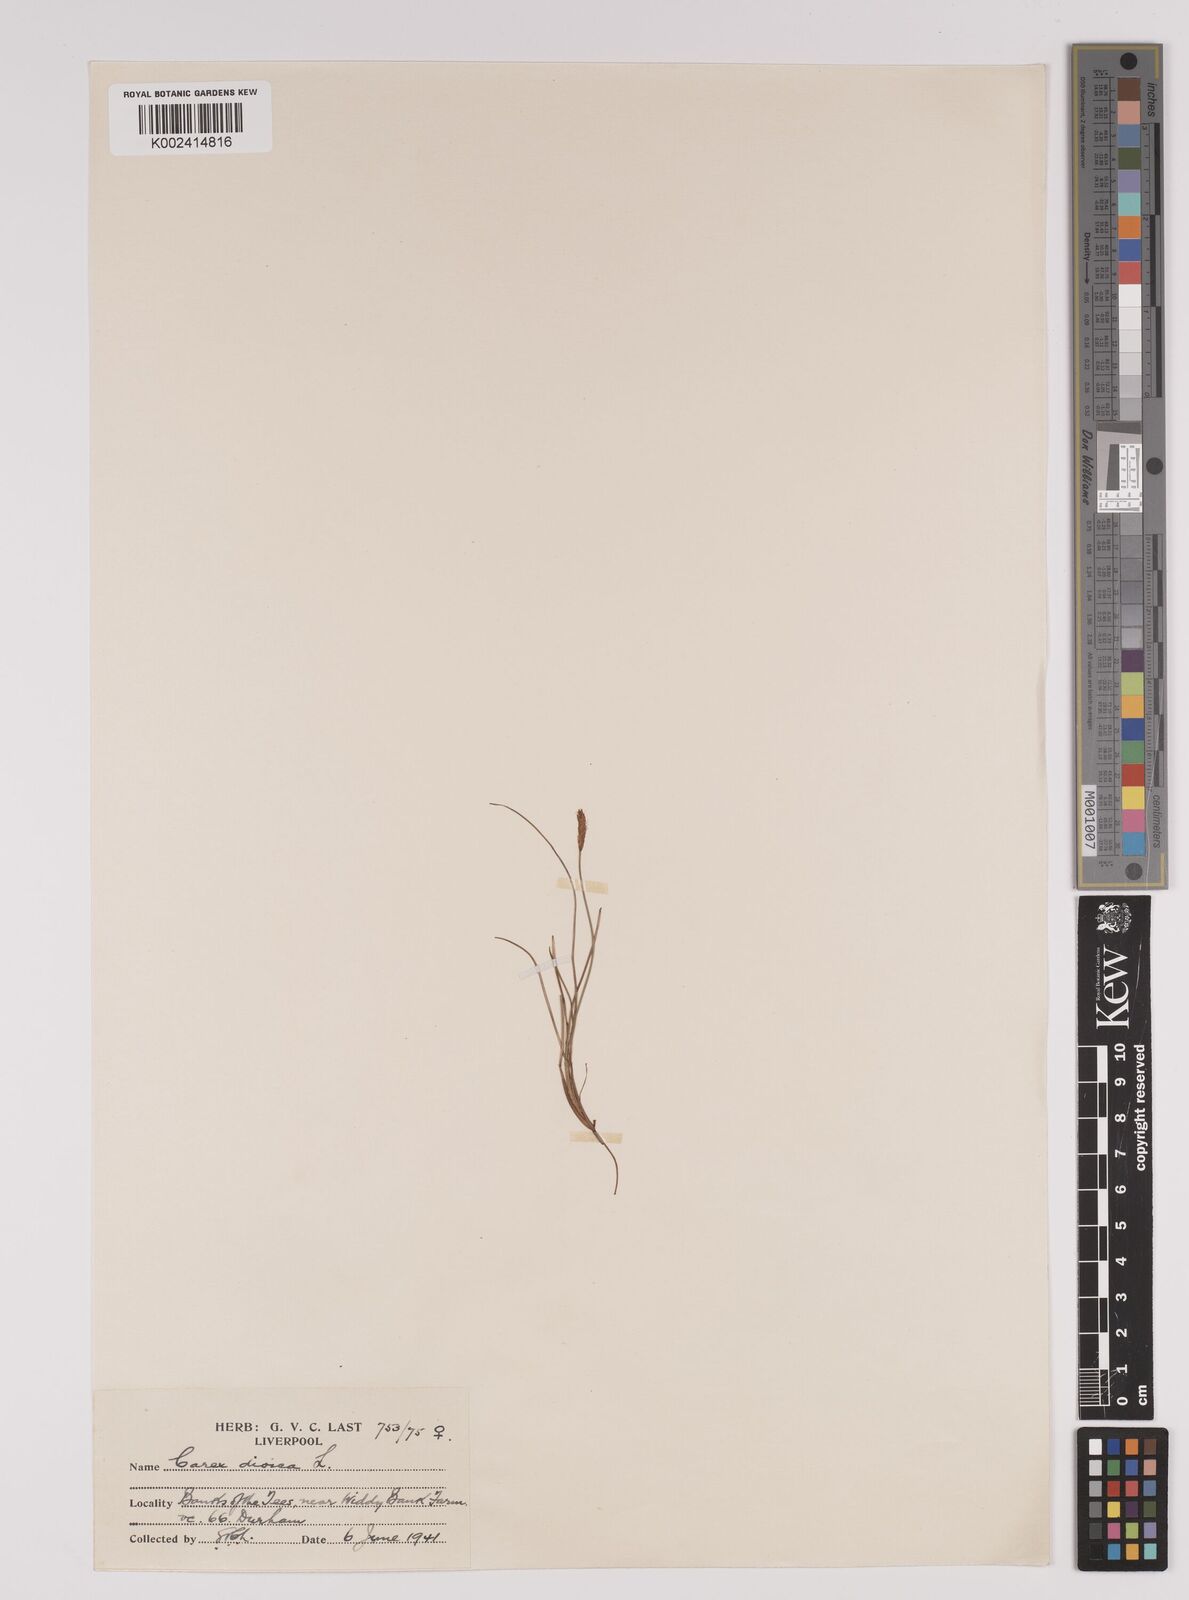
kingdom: Plantae
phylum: Tracheophyta
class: Liliopsida
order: Poales
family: Cyperaceae
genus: Carex
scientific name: Carex dioica
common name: Dioecious sedge
